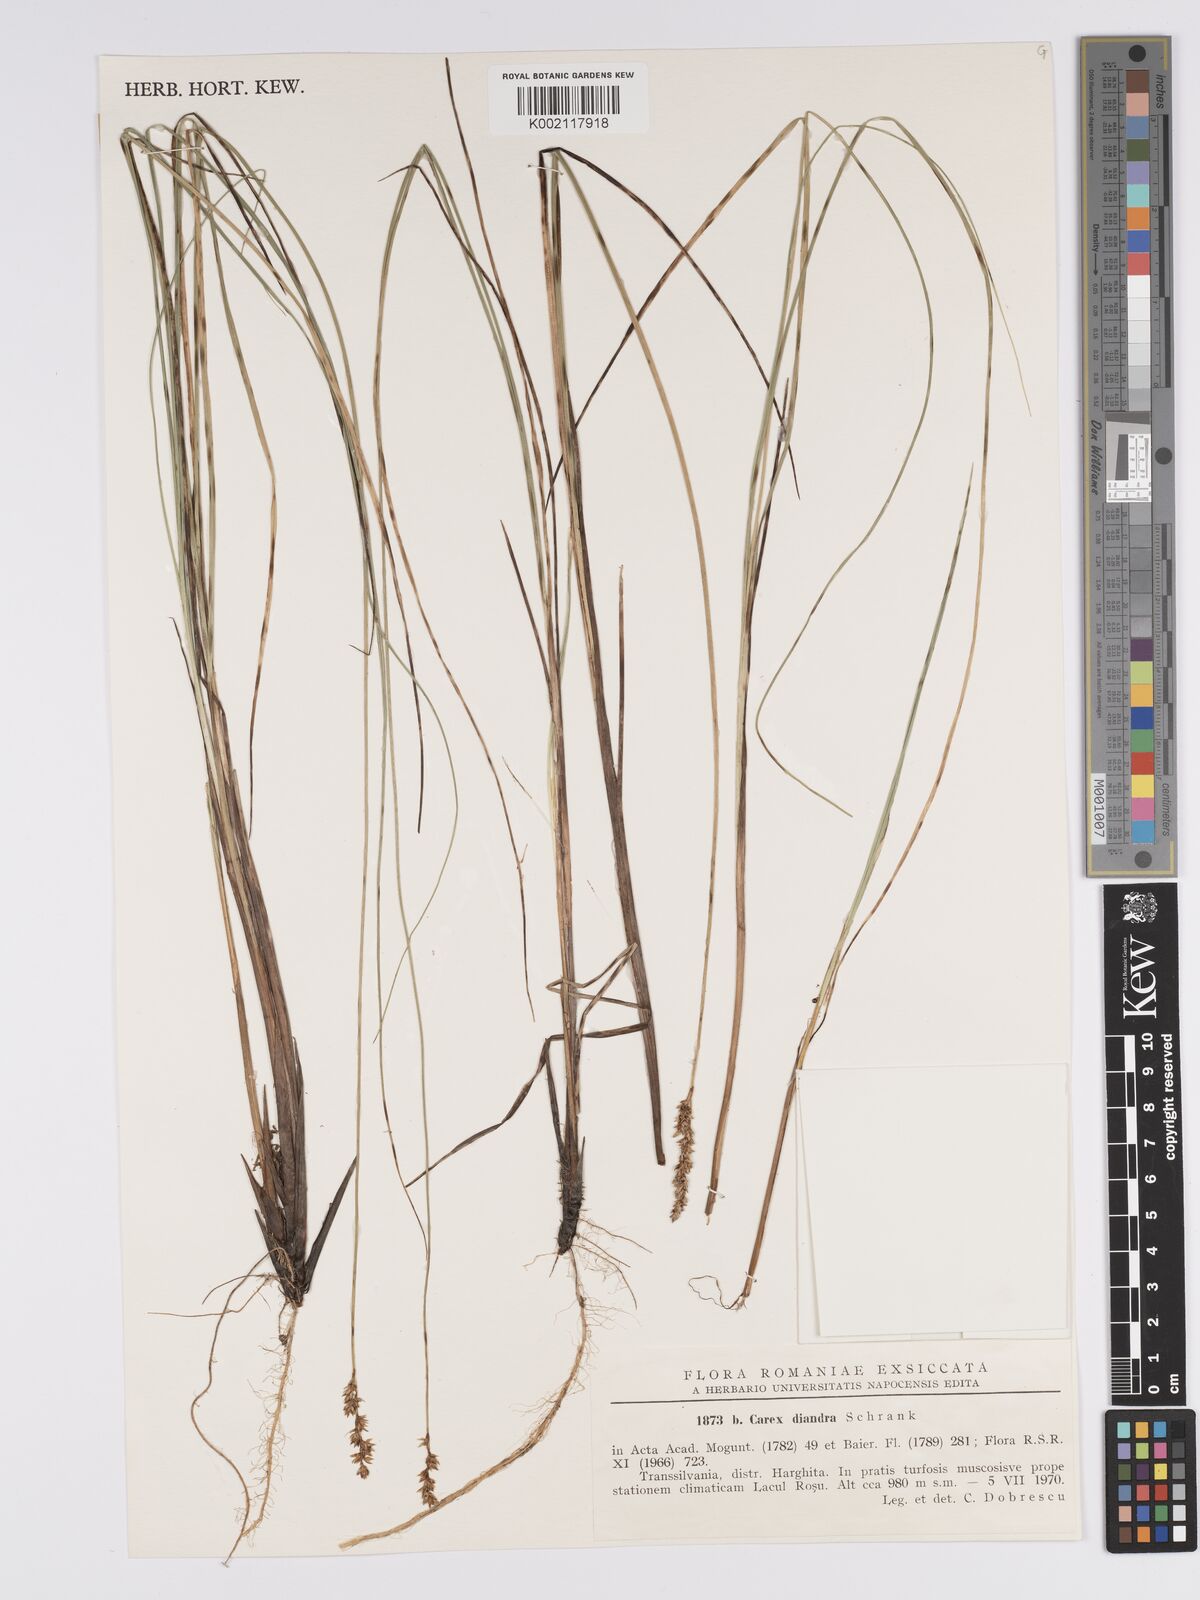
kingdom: Plantae
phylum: Tracheophyta
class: Liliopsida
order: Poales
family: Cyperaceae
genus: Carex
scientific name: Carex diandra
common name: Lesser tussock-sedge
